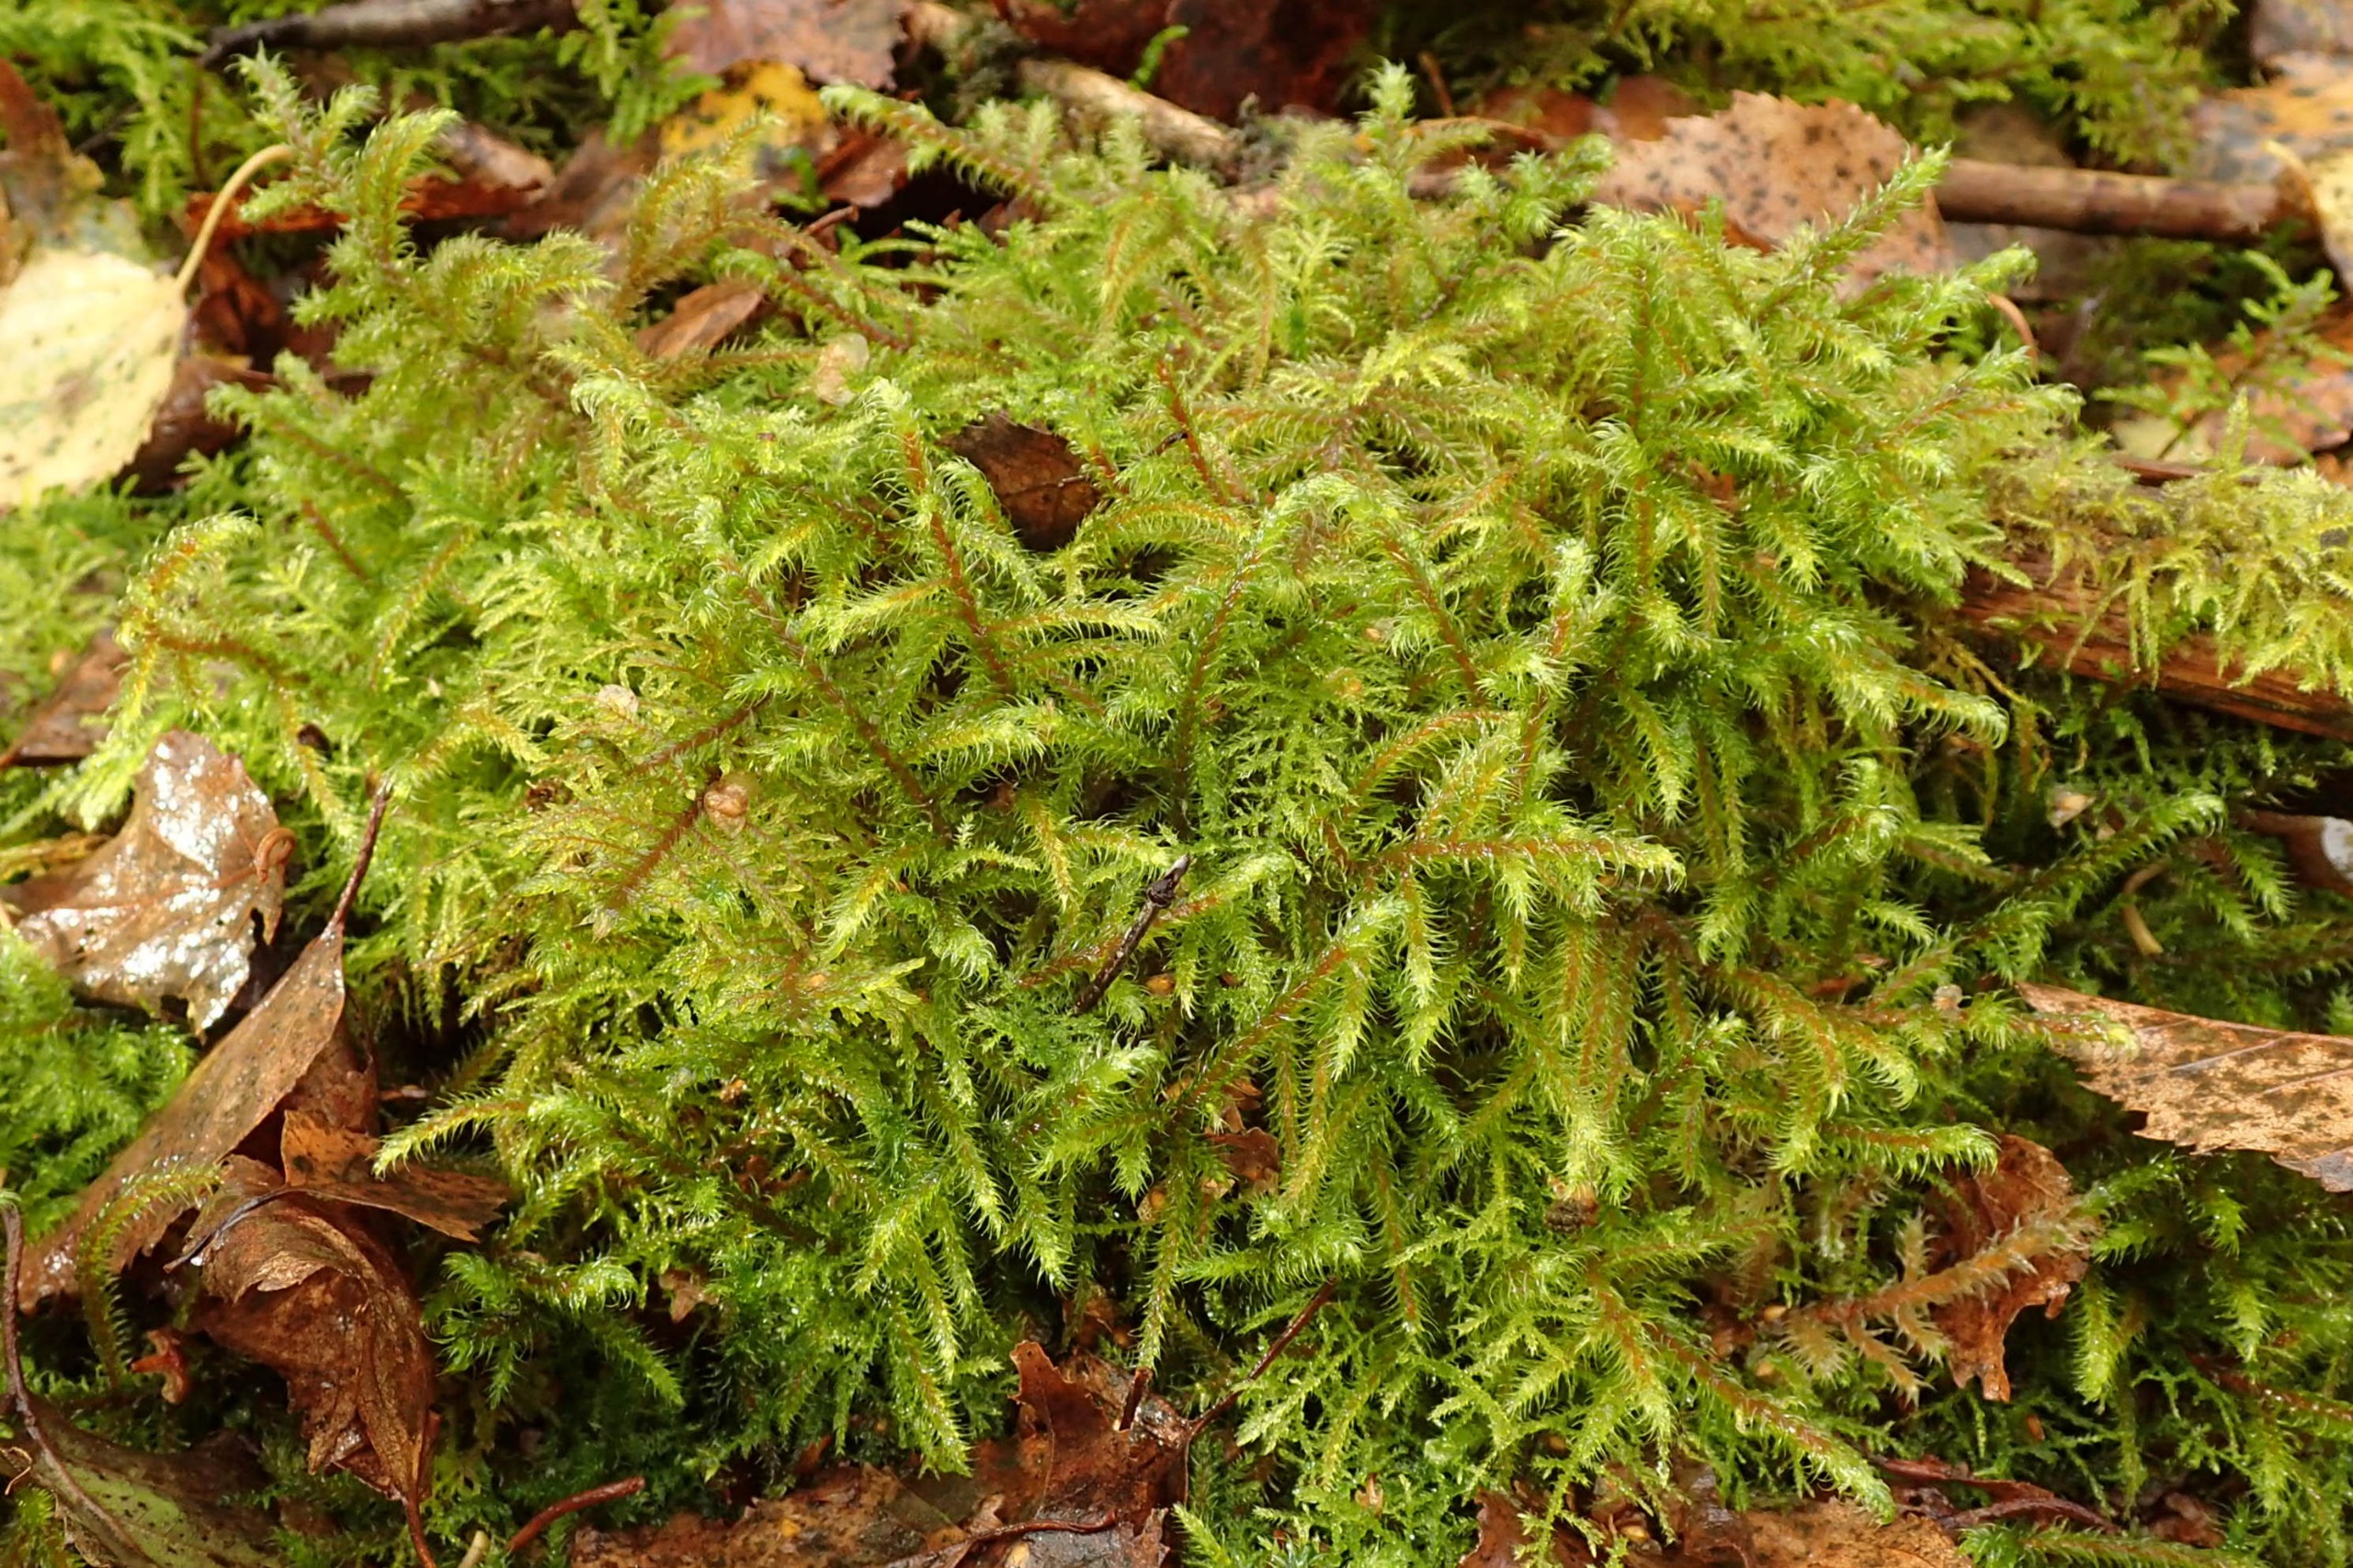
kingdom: Plantae
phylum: Bryophyta
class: Bryopsida
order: Hypnales
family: Hylocomiaceae
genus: Rhytidiadelphus
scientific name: Rhytidiadelphus loreus
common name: Ulvefod-kransemos
